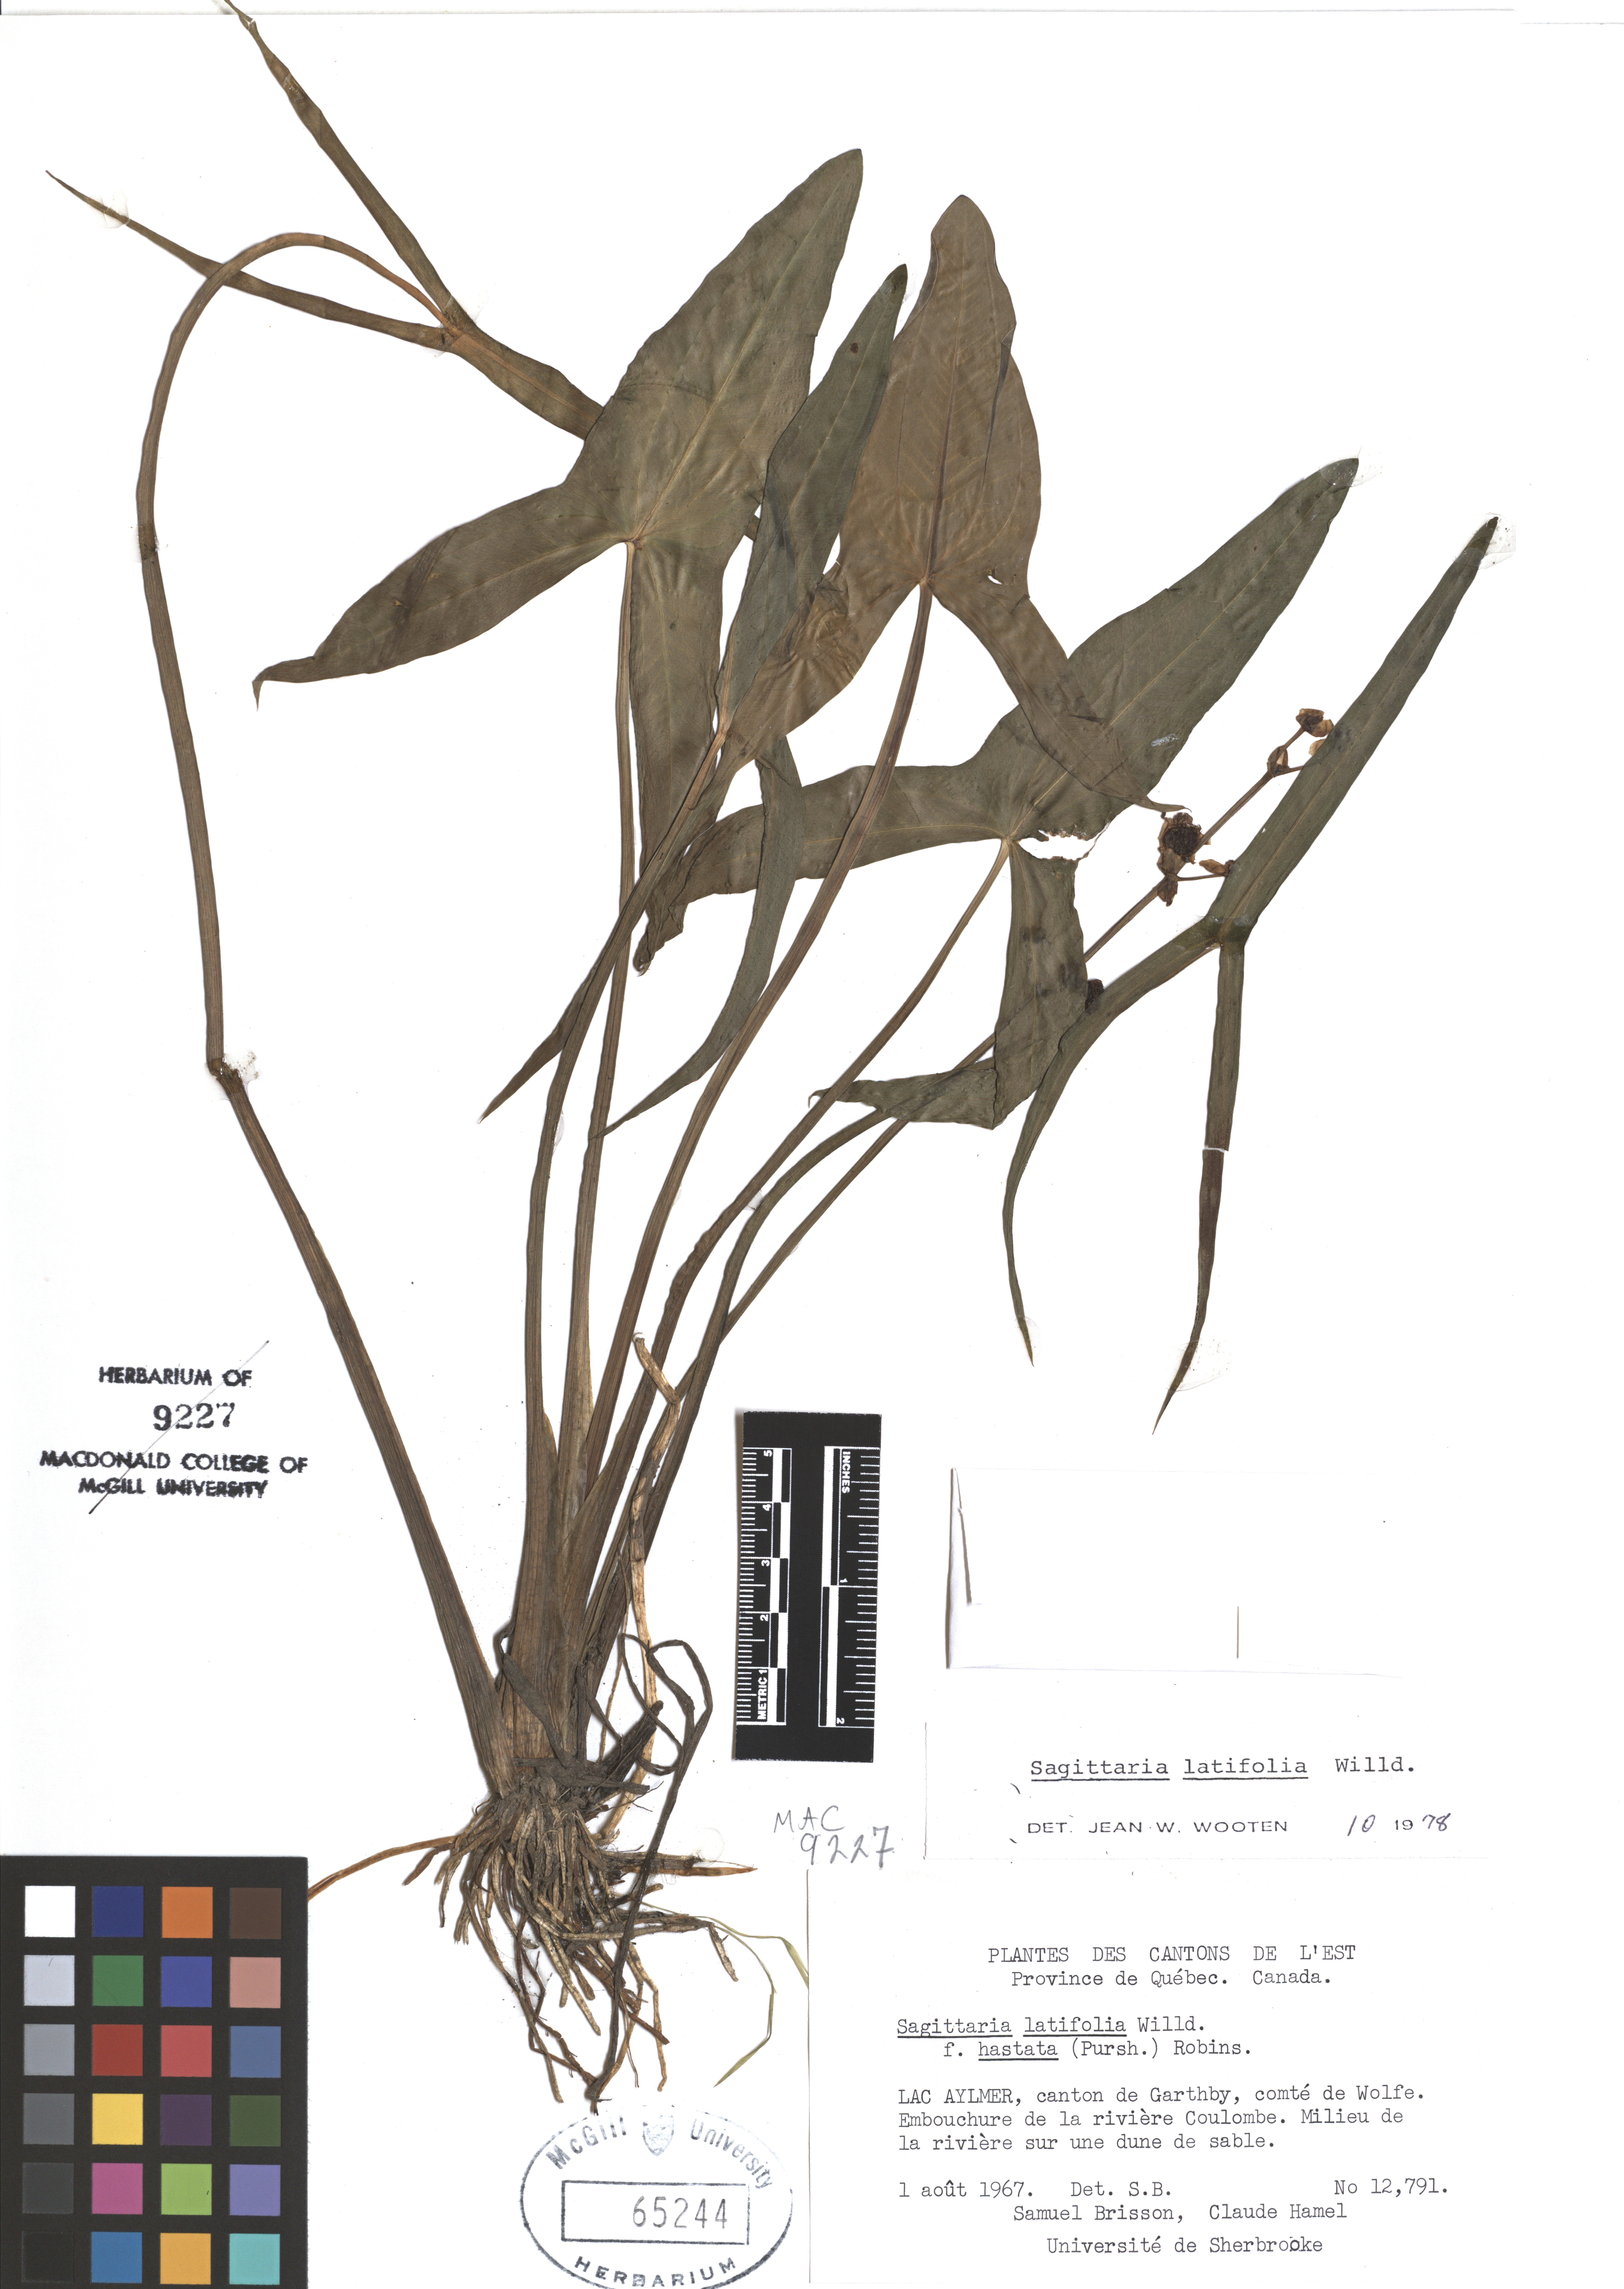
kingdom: Plantae
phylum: Tracheophyta
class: Liliopsida
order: Alismatales
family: Alismataceae
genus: Sagittaria
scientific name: Sagittaria latifolia
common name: Duck-potato
